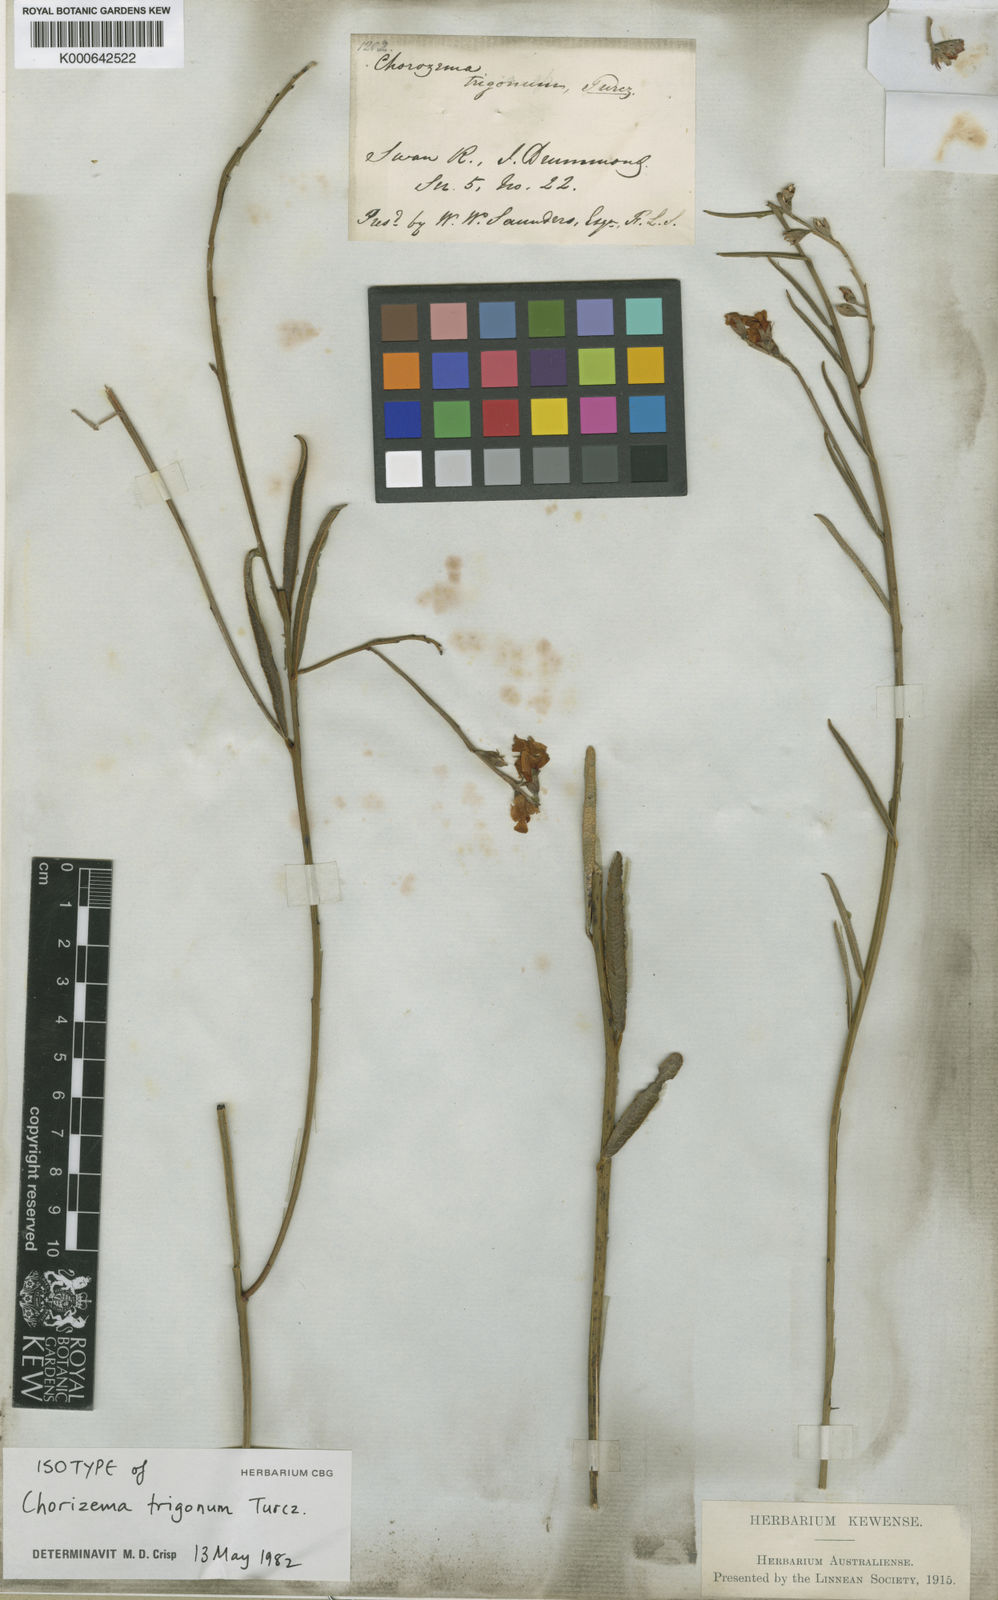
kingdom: Plantae
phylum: Tracheophyta
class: Magnoliopsida
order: Fabales
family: Fabaceae
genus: Chorizema
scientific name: Chorizema trigonum
